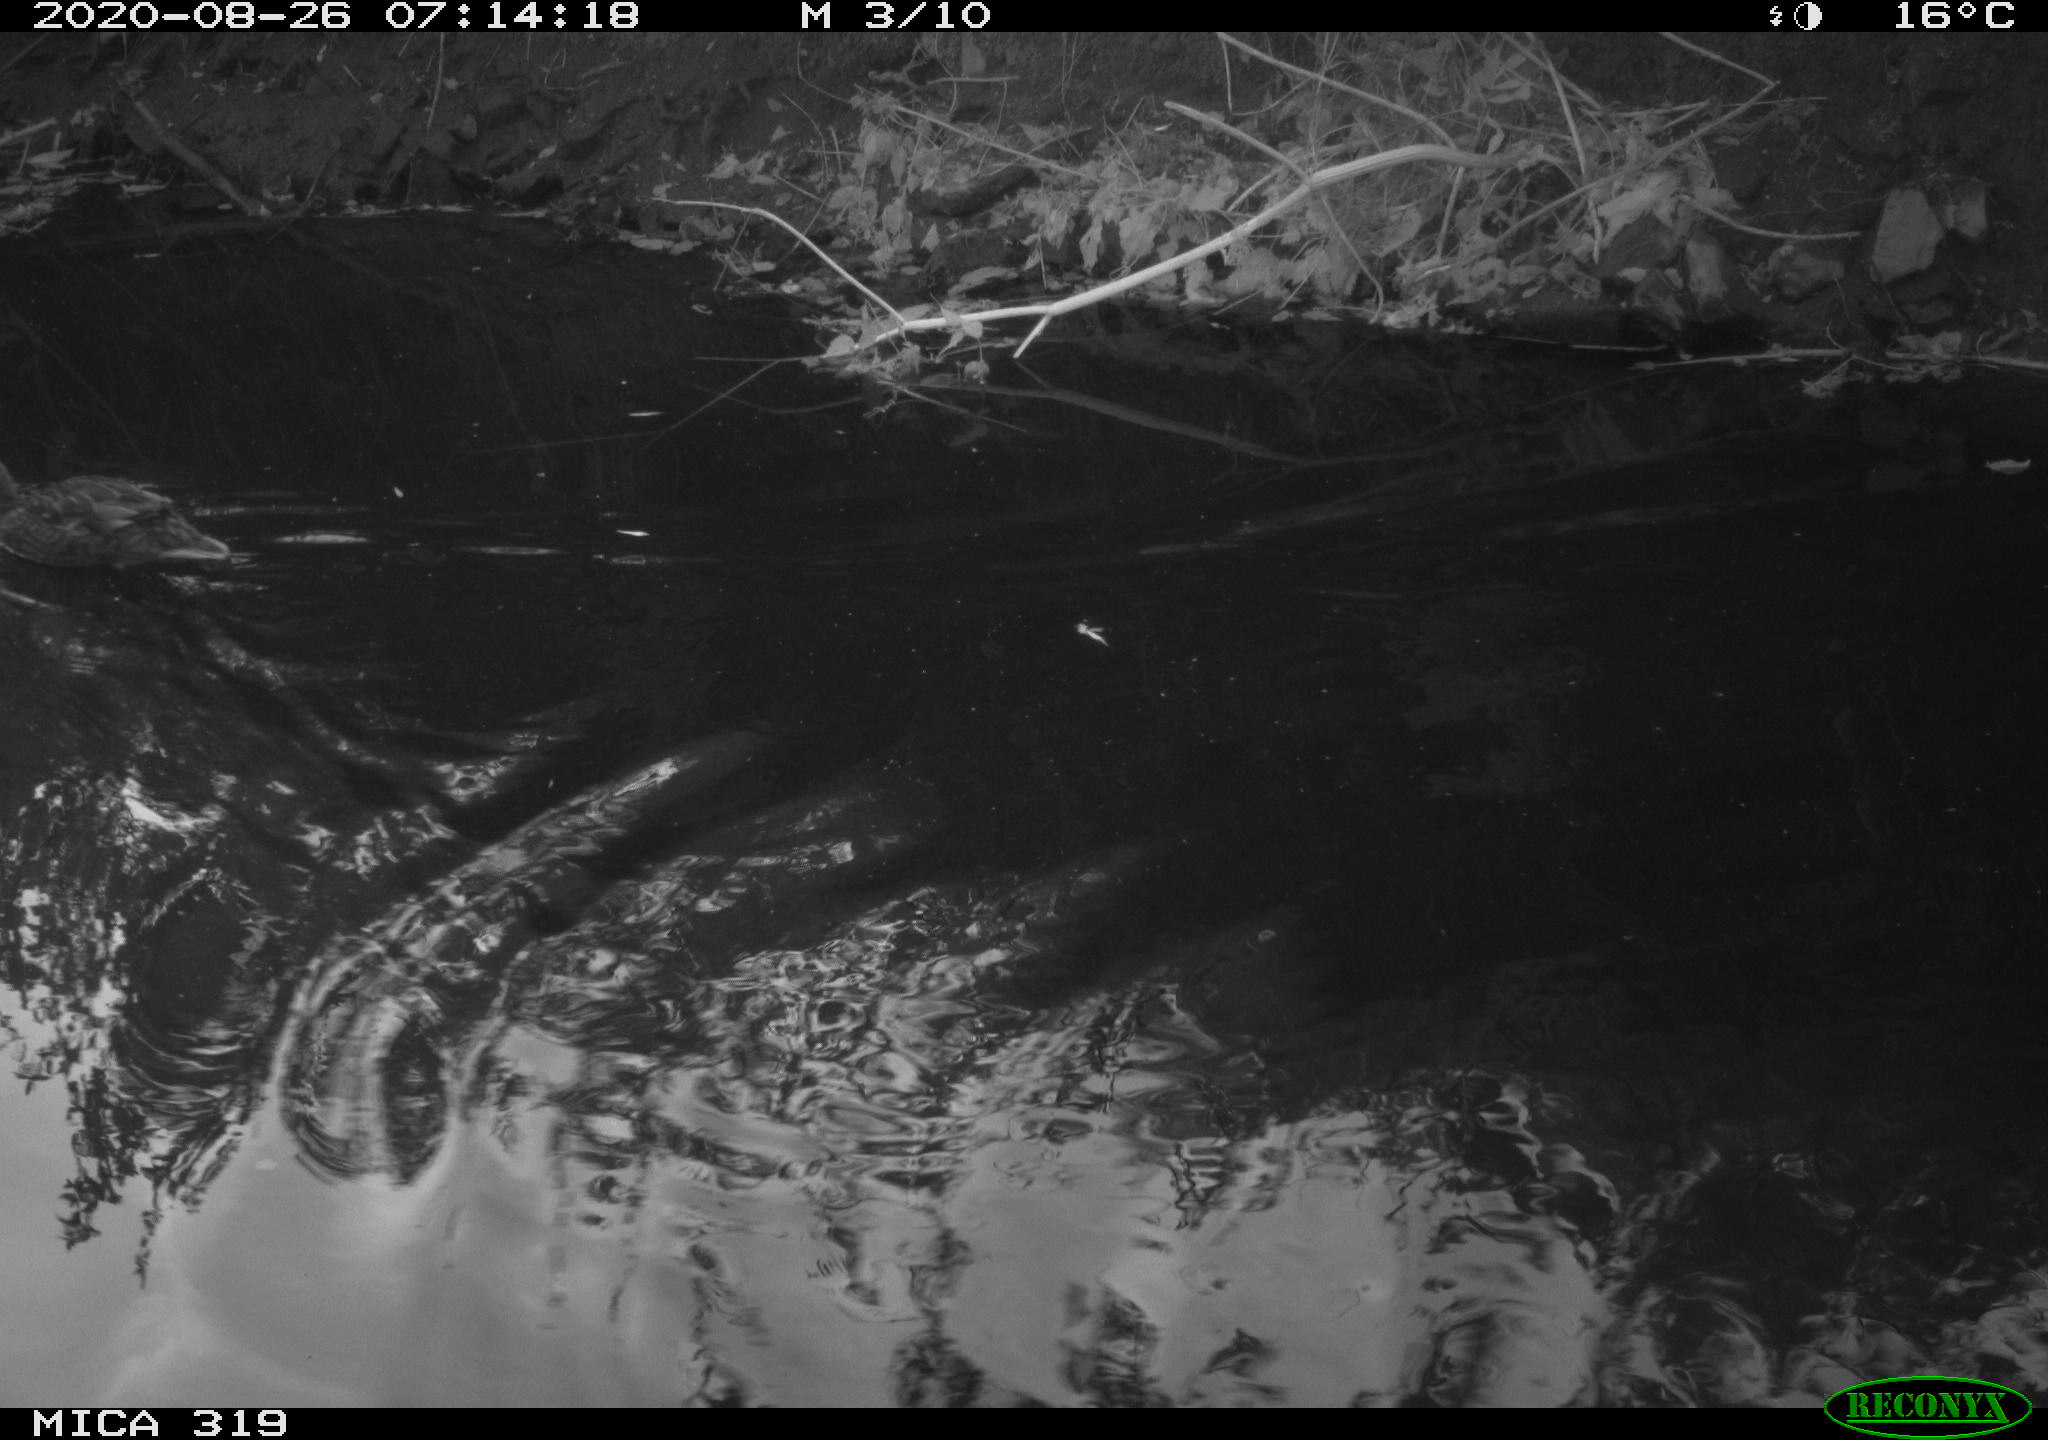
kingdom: Animalia
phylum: Chordata
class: Aves
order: Anseriformes
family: Anatidae
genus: Anas
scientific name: Anas platyrhynchos
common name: Mallard
